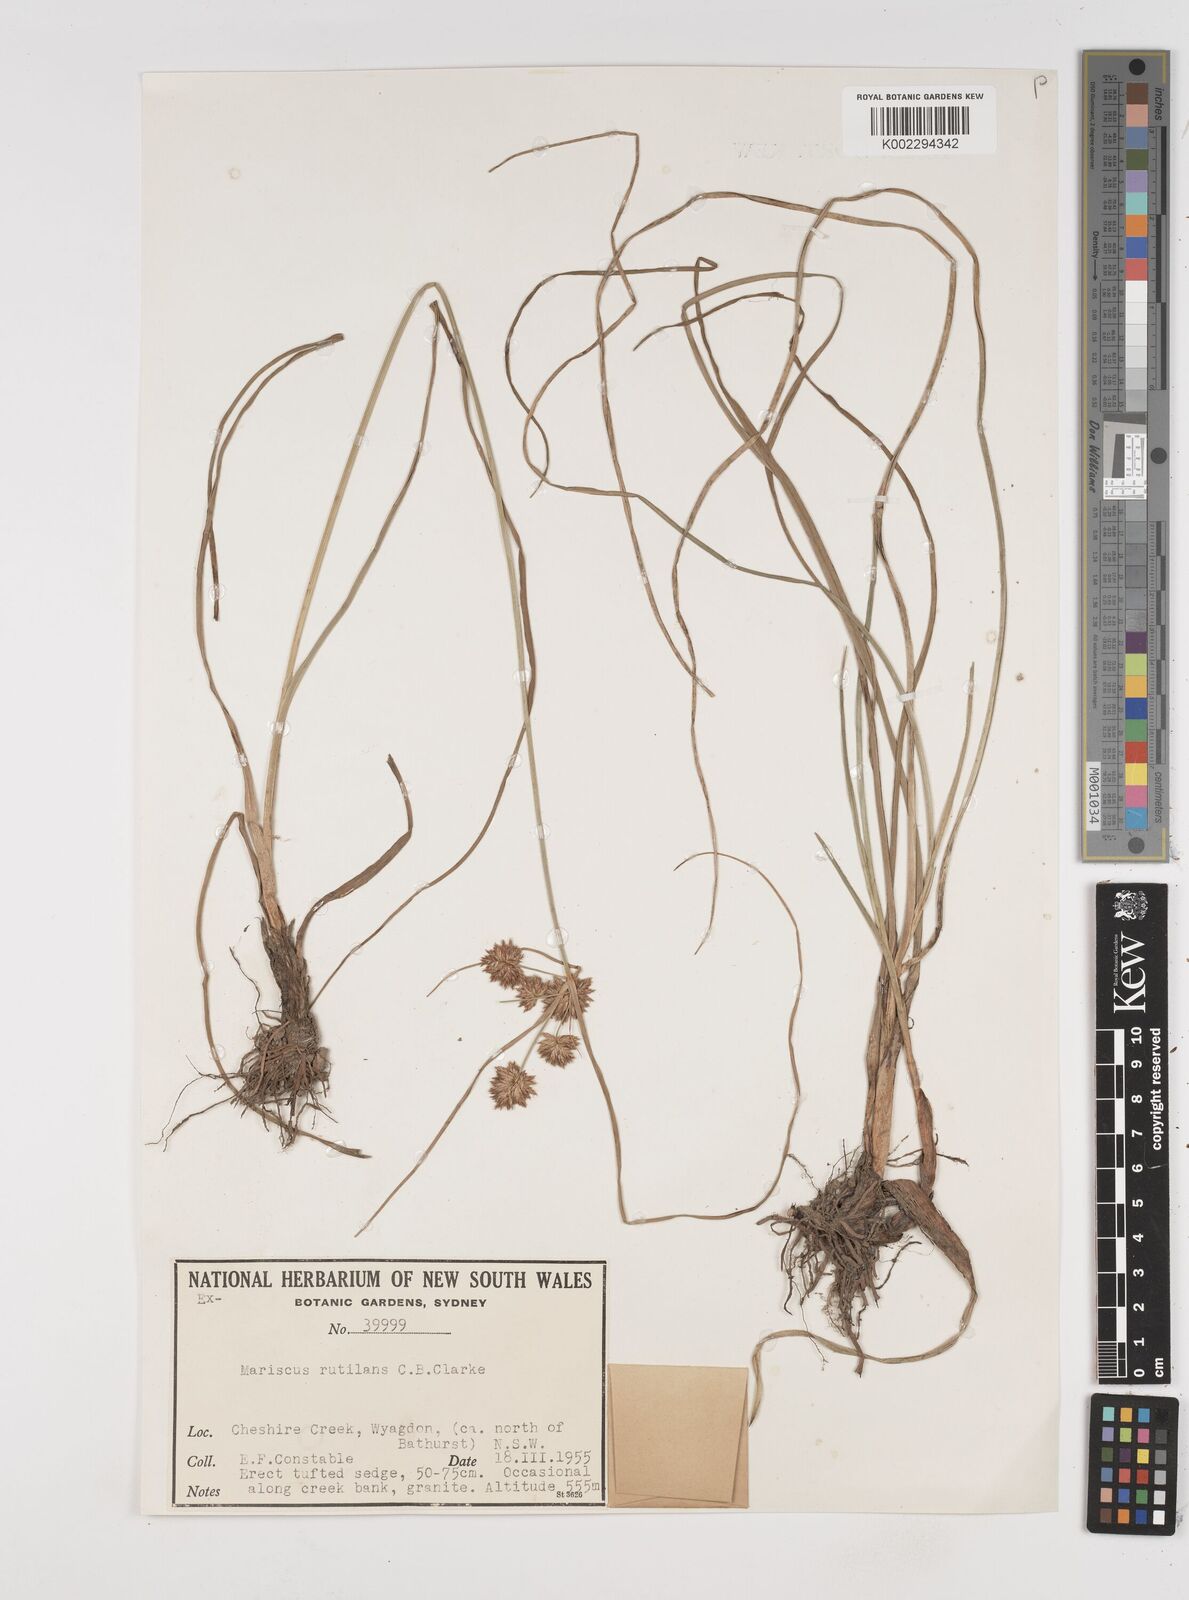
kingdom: Plantae
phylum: Tracheophyta
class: Liliopsida
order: Poales
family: Cyperaceae
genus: Cyperus
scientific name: Cyperus lhotskyanus
